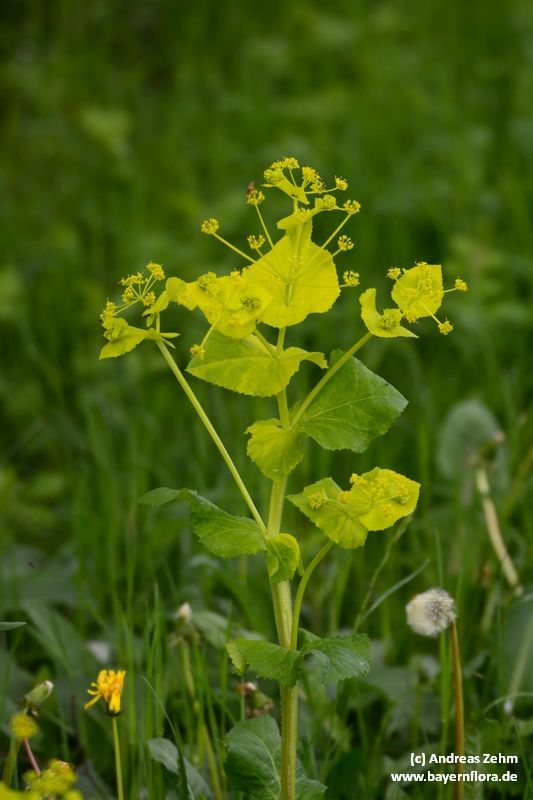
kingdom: Plantae
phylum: Tracheophyta
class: Magnoliopsida
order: Apiales
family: Apiaceae
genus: Smyrnium
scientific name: Smyrnium perfoliatum
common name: Perfoliate alexanders
